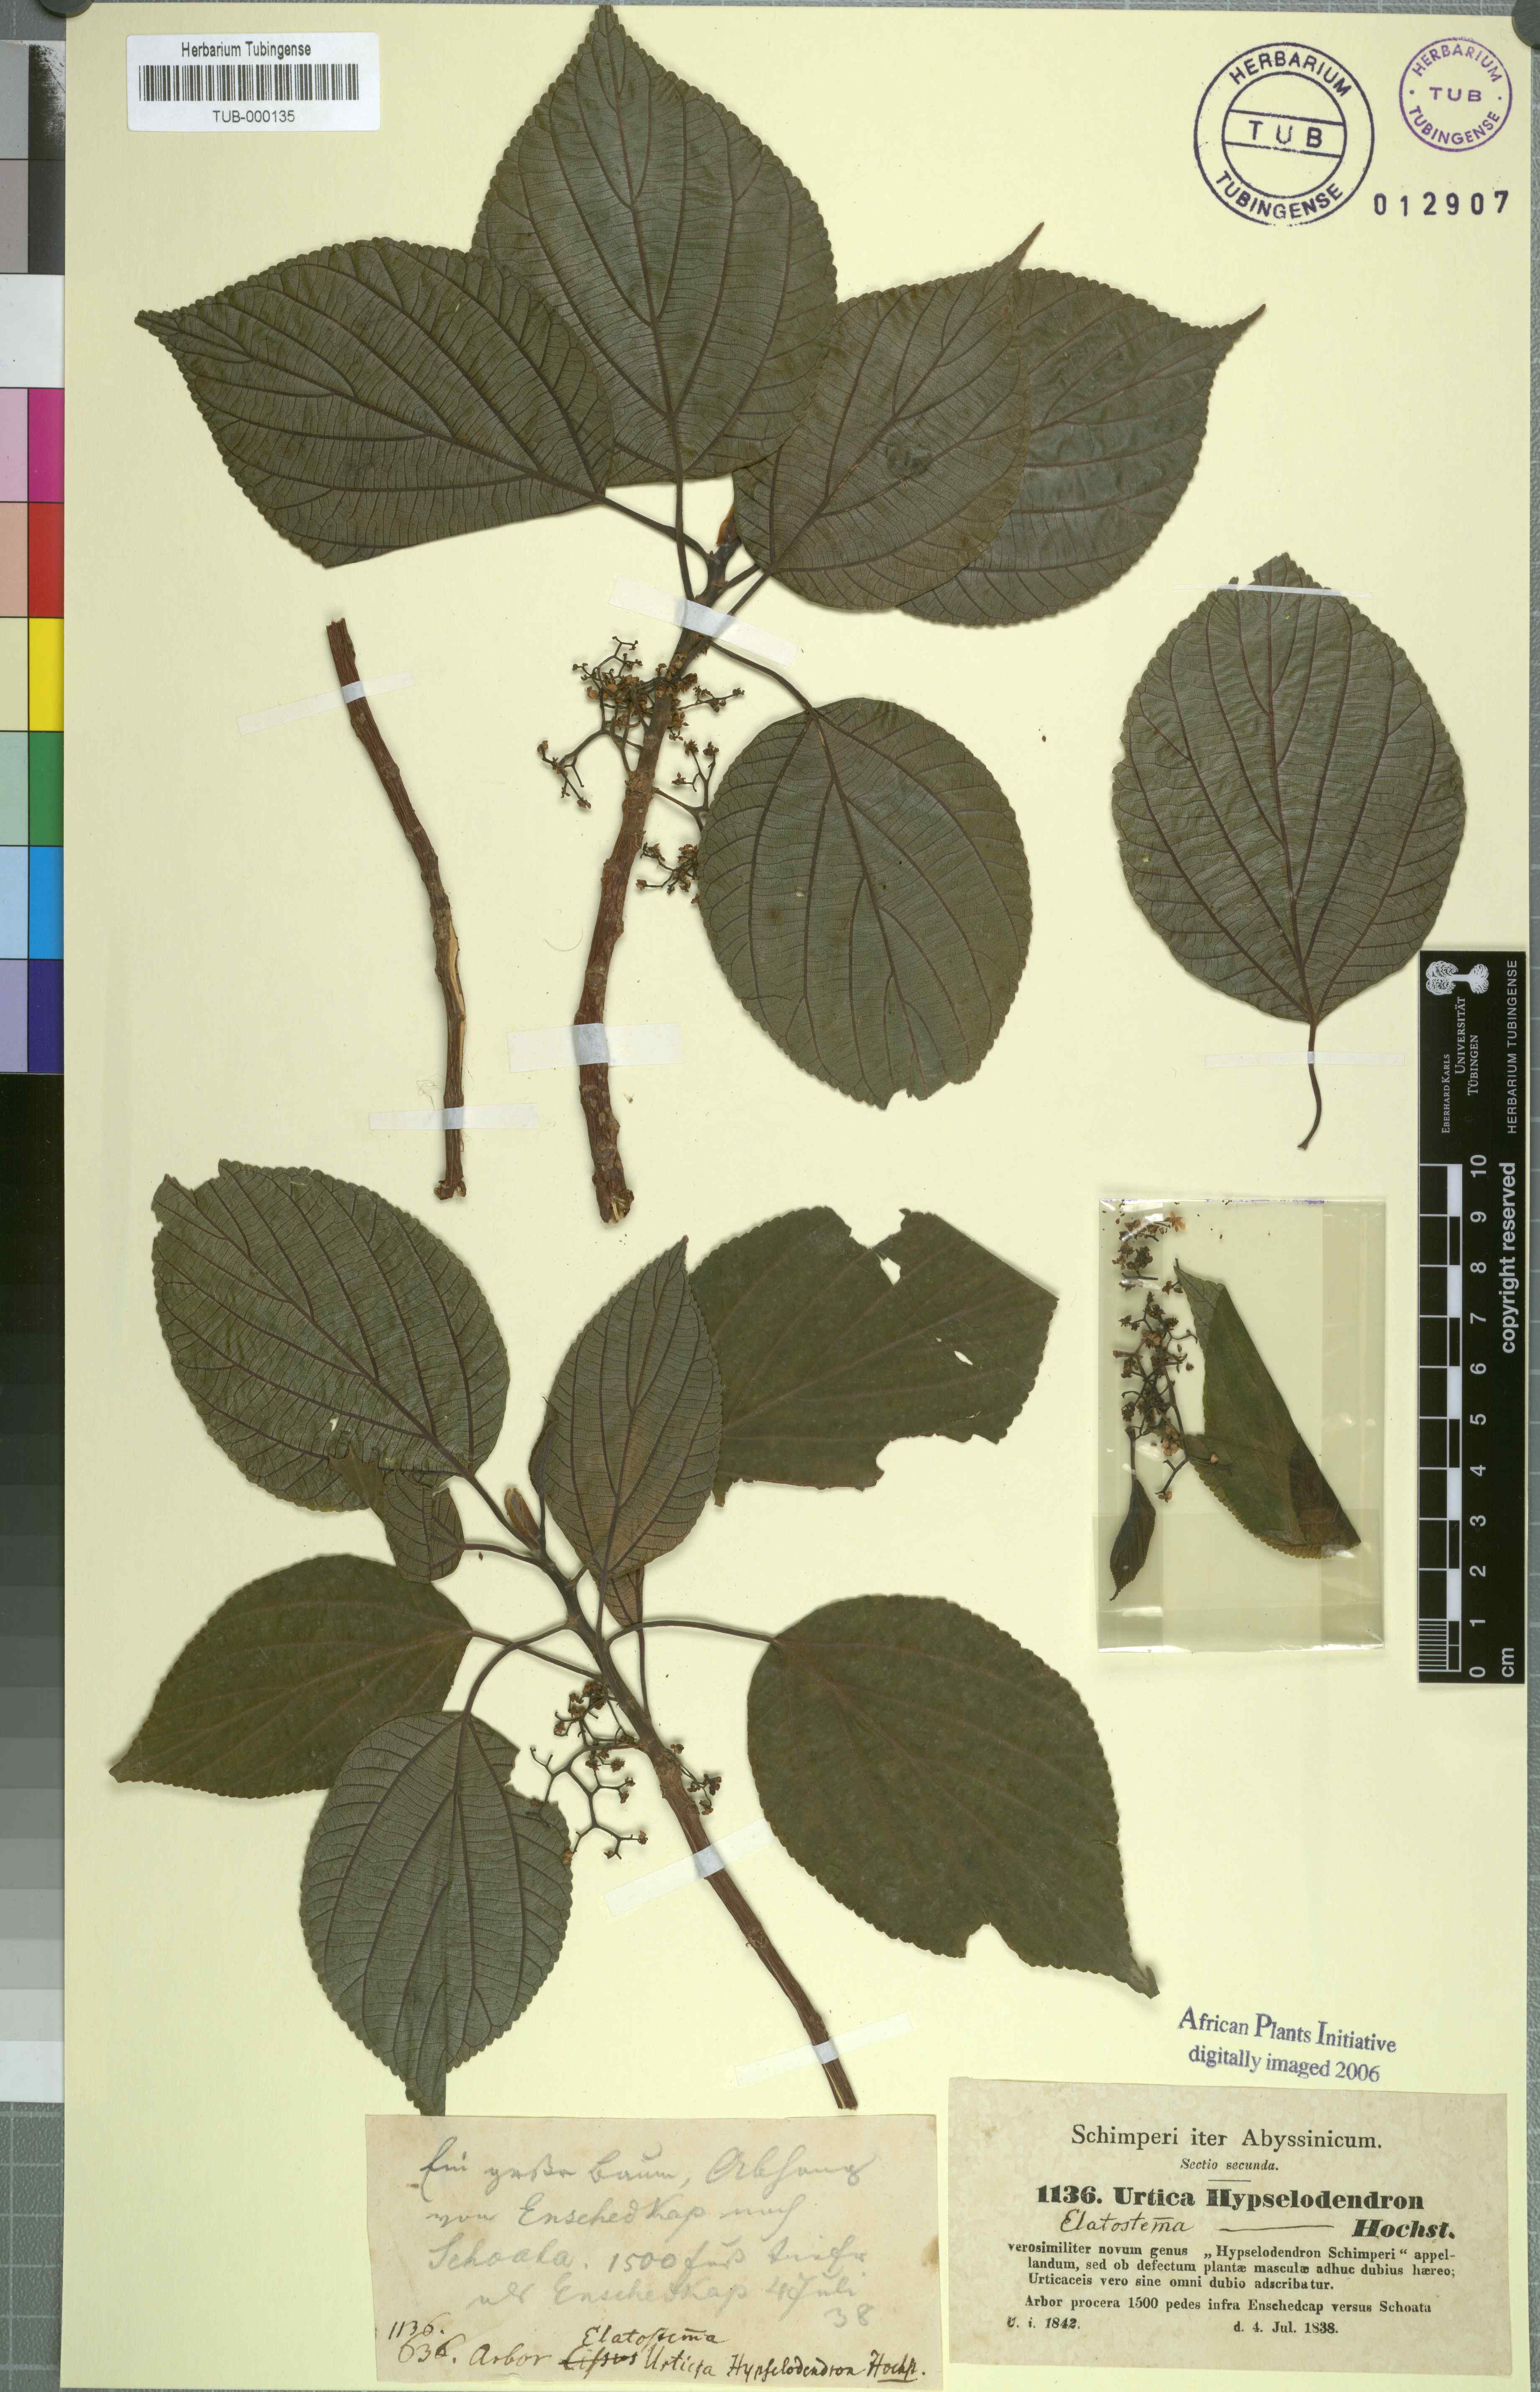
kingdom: Plantae
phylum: Tracheophyta
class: Magnoliopsida
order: Rosales
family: Urticaceae
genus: Scepocarpus
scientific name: Scepocarpus hypselodendron
